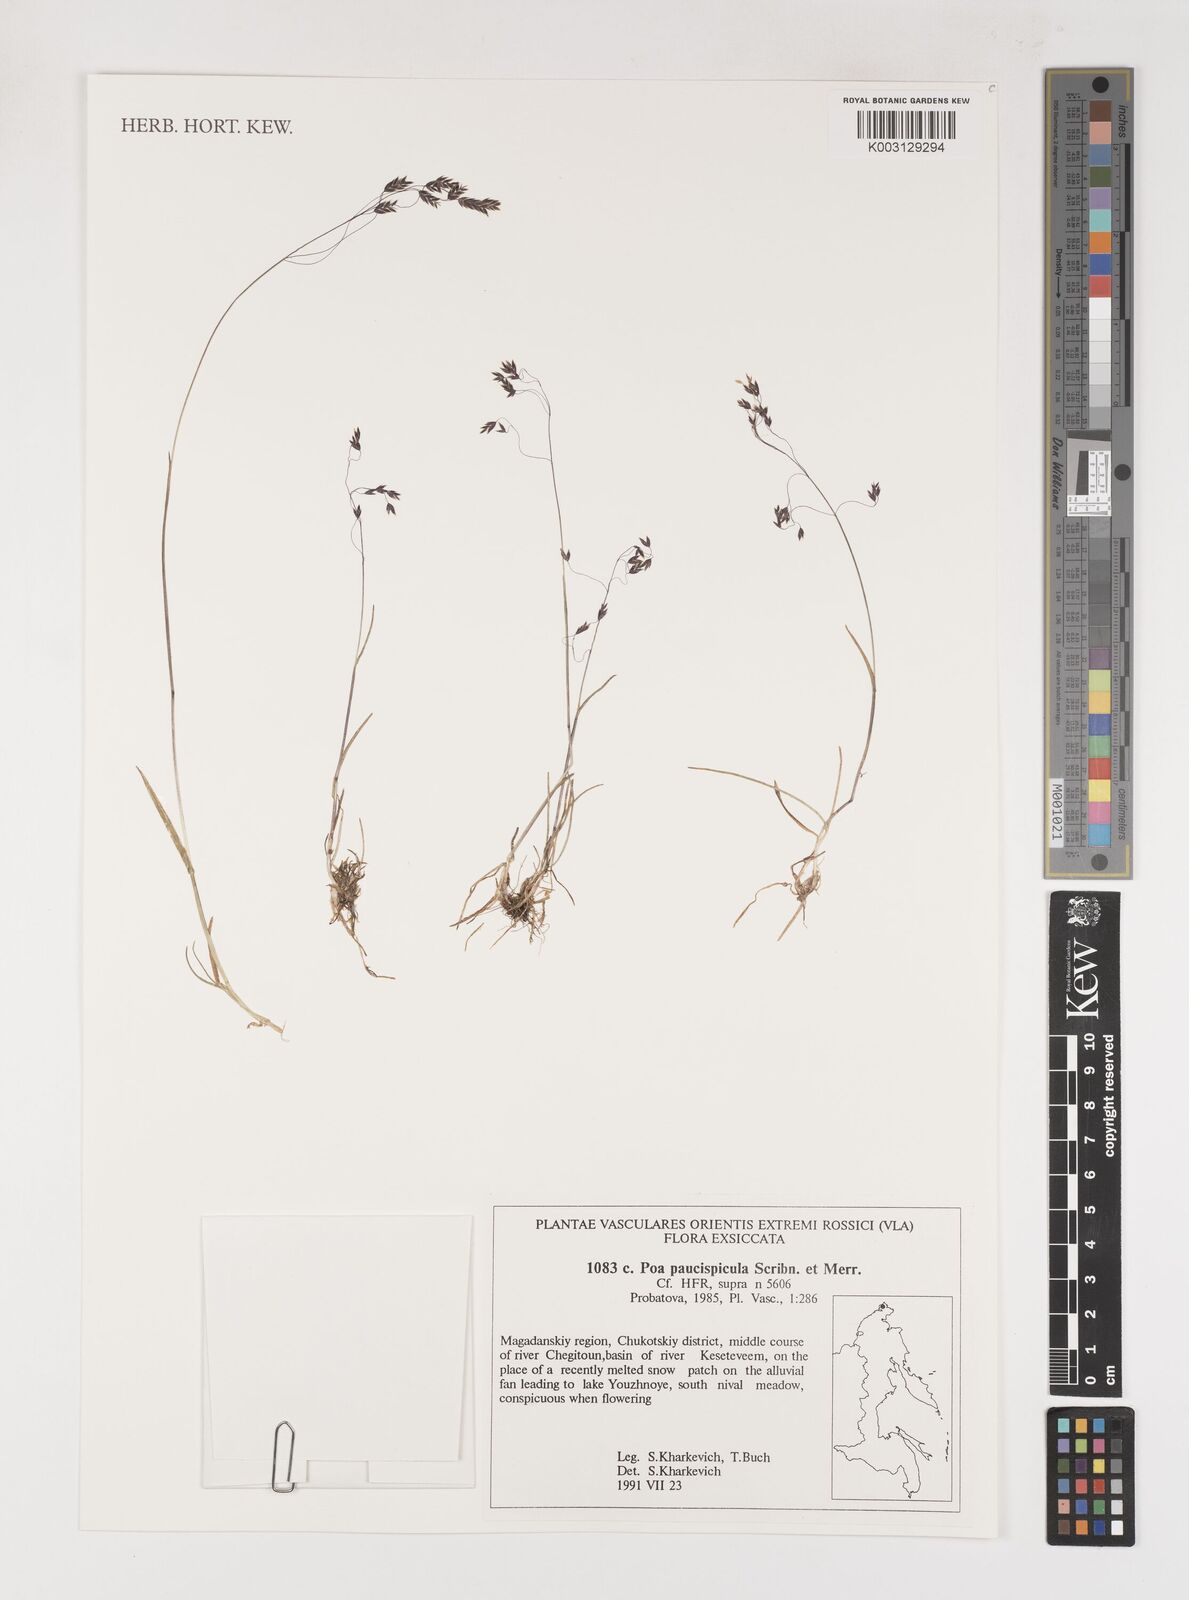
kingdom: Plantae
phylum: Tracheophyta
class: Liliopsida
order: Poales
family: Poaceae
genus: Poa
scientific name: Poa paucispicula
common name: Alaska bluegrass
